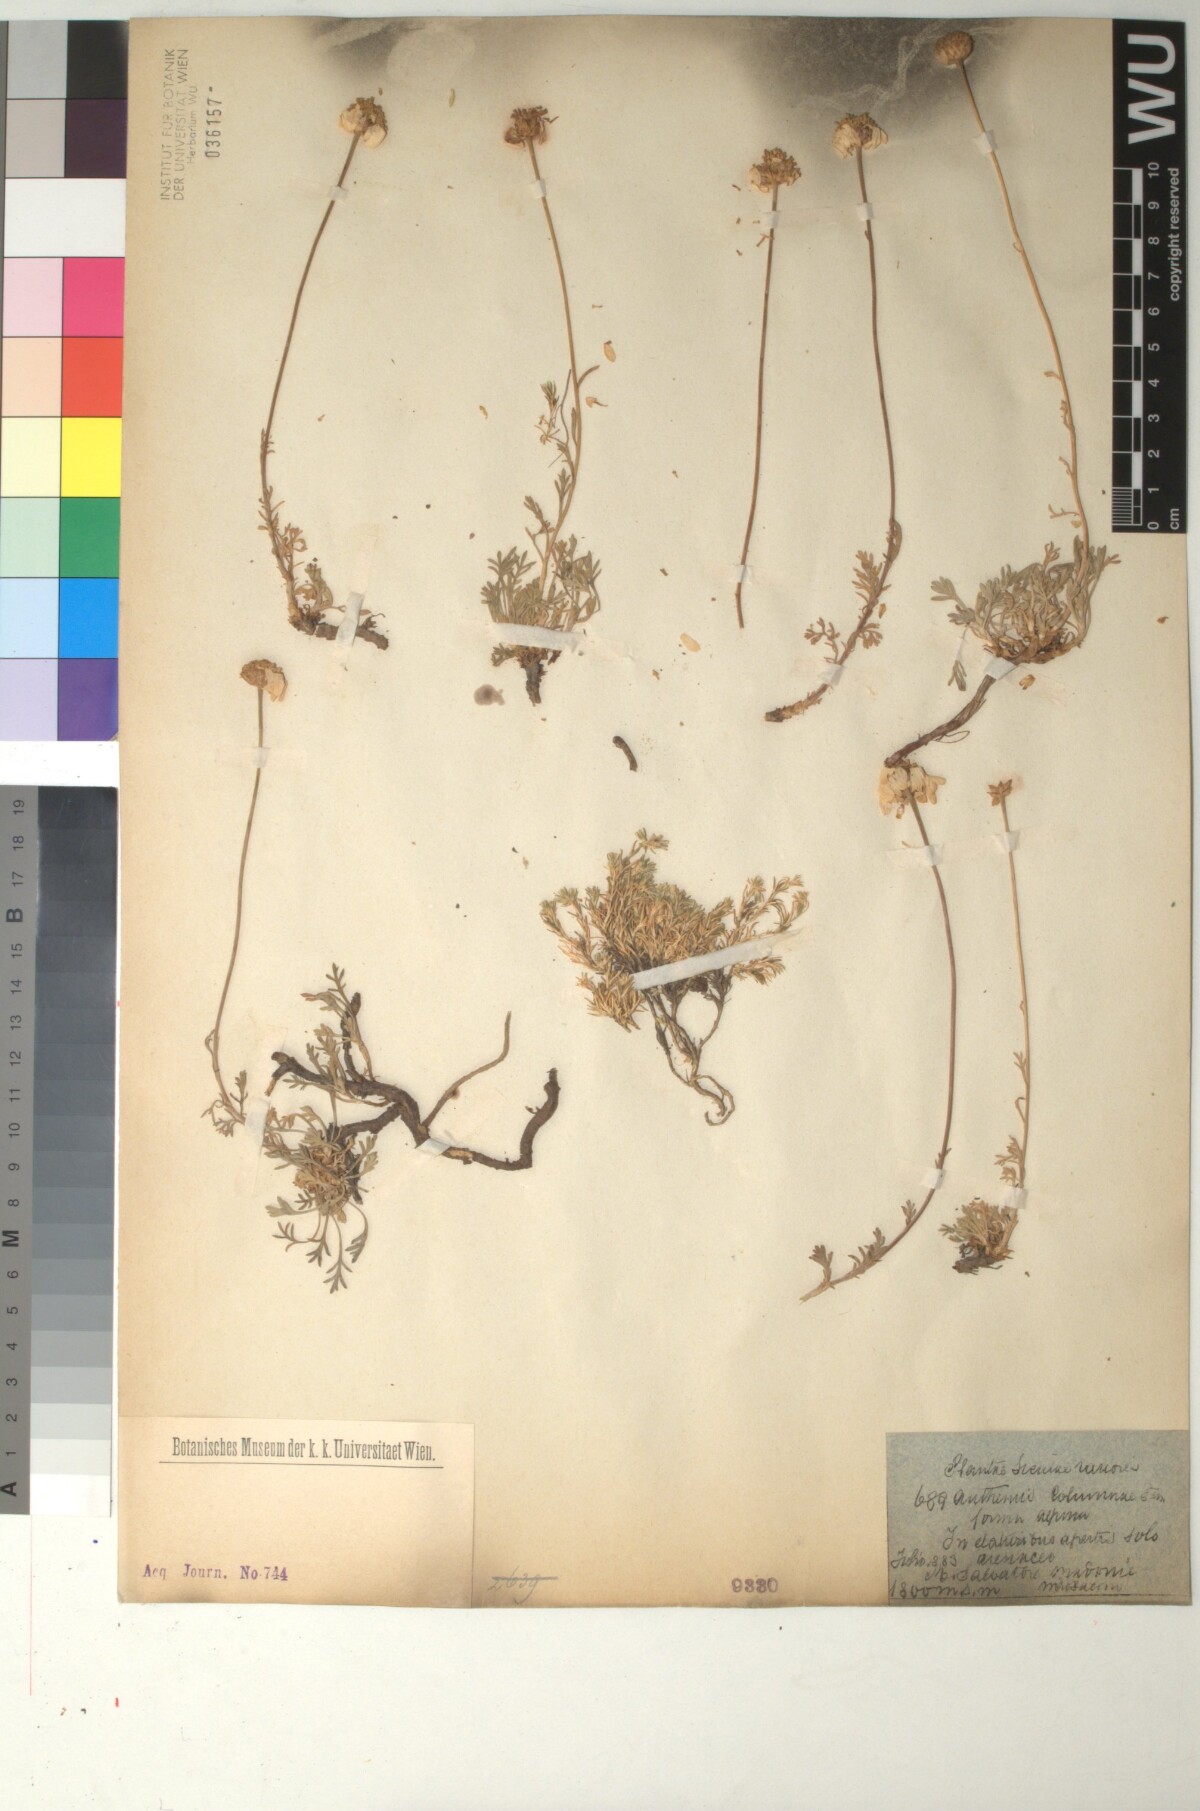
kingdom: Plantae
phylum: Tracheophyta
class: Magnoliopsida
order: Asterales
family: Asteraceae
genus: Anthemis
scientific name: Anthemis cretica
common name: Mountain dog-daisy
